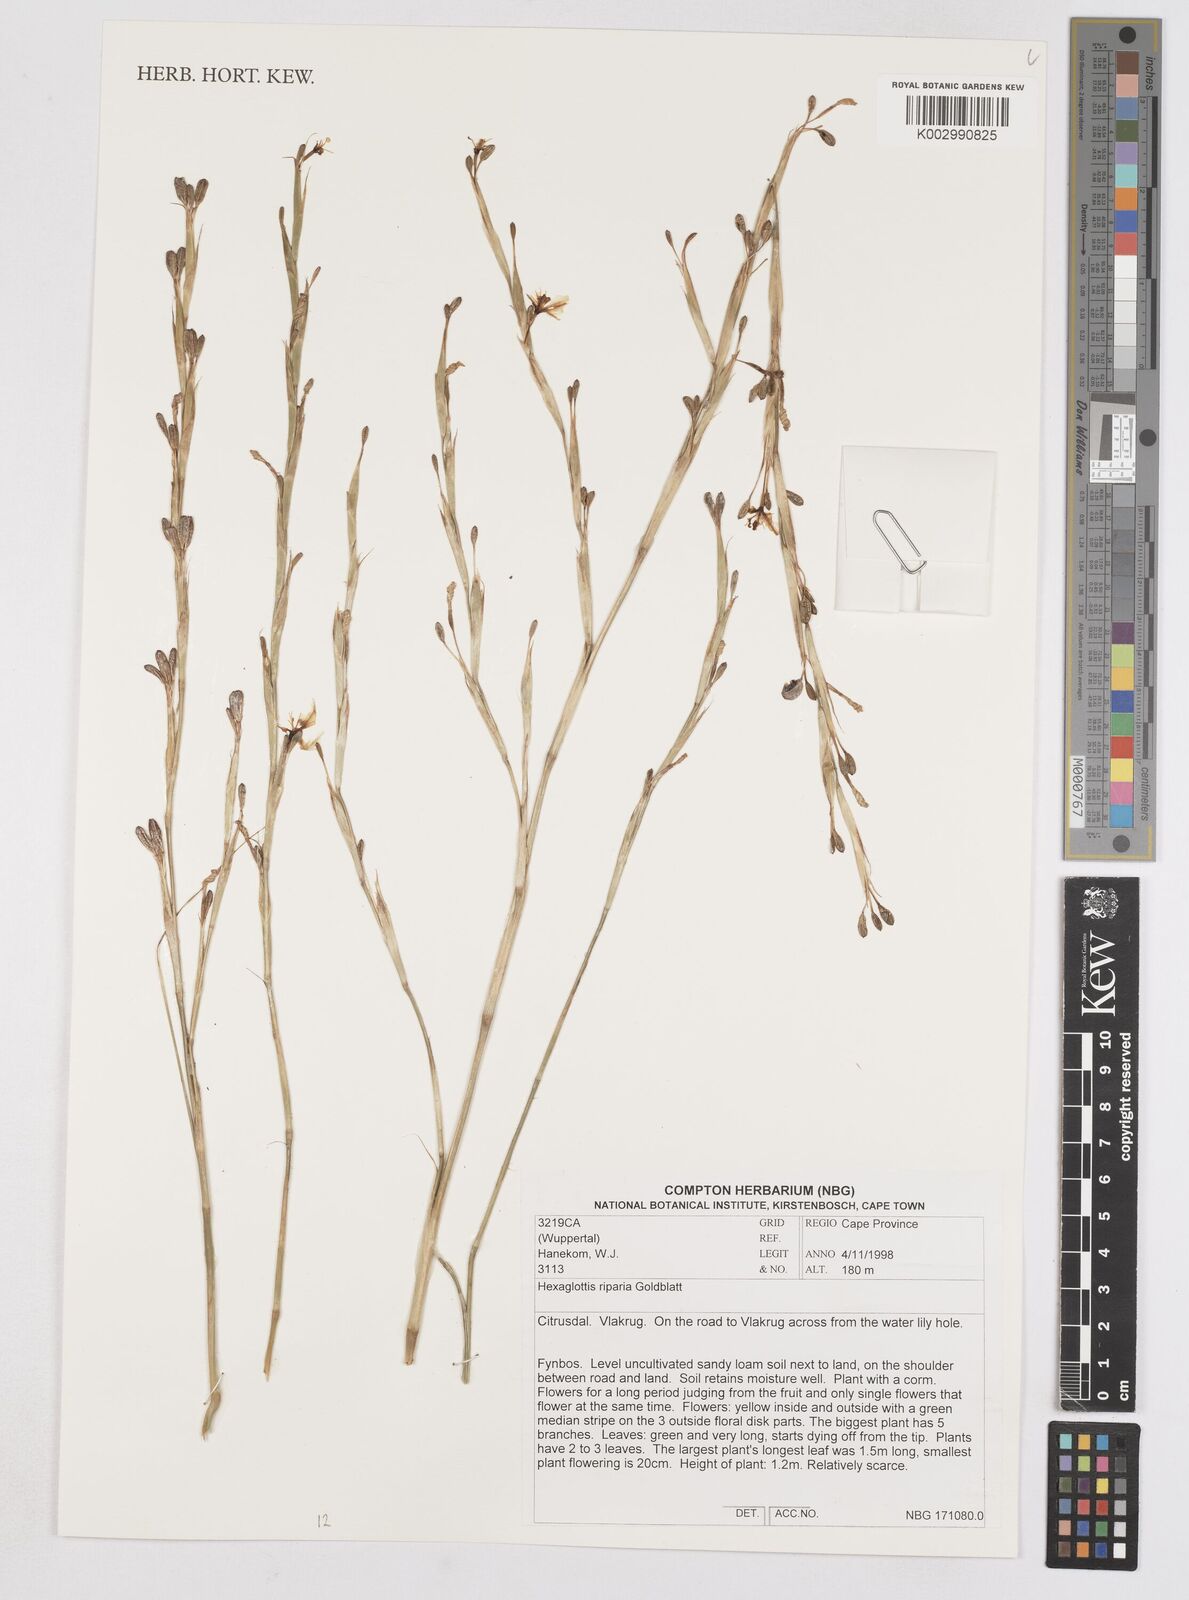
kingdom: Plantae
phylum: Tracheophyta
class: Liliopsida
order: Asparagales
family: Iridaceae
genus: Moraea
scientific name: Moraea riparia
